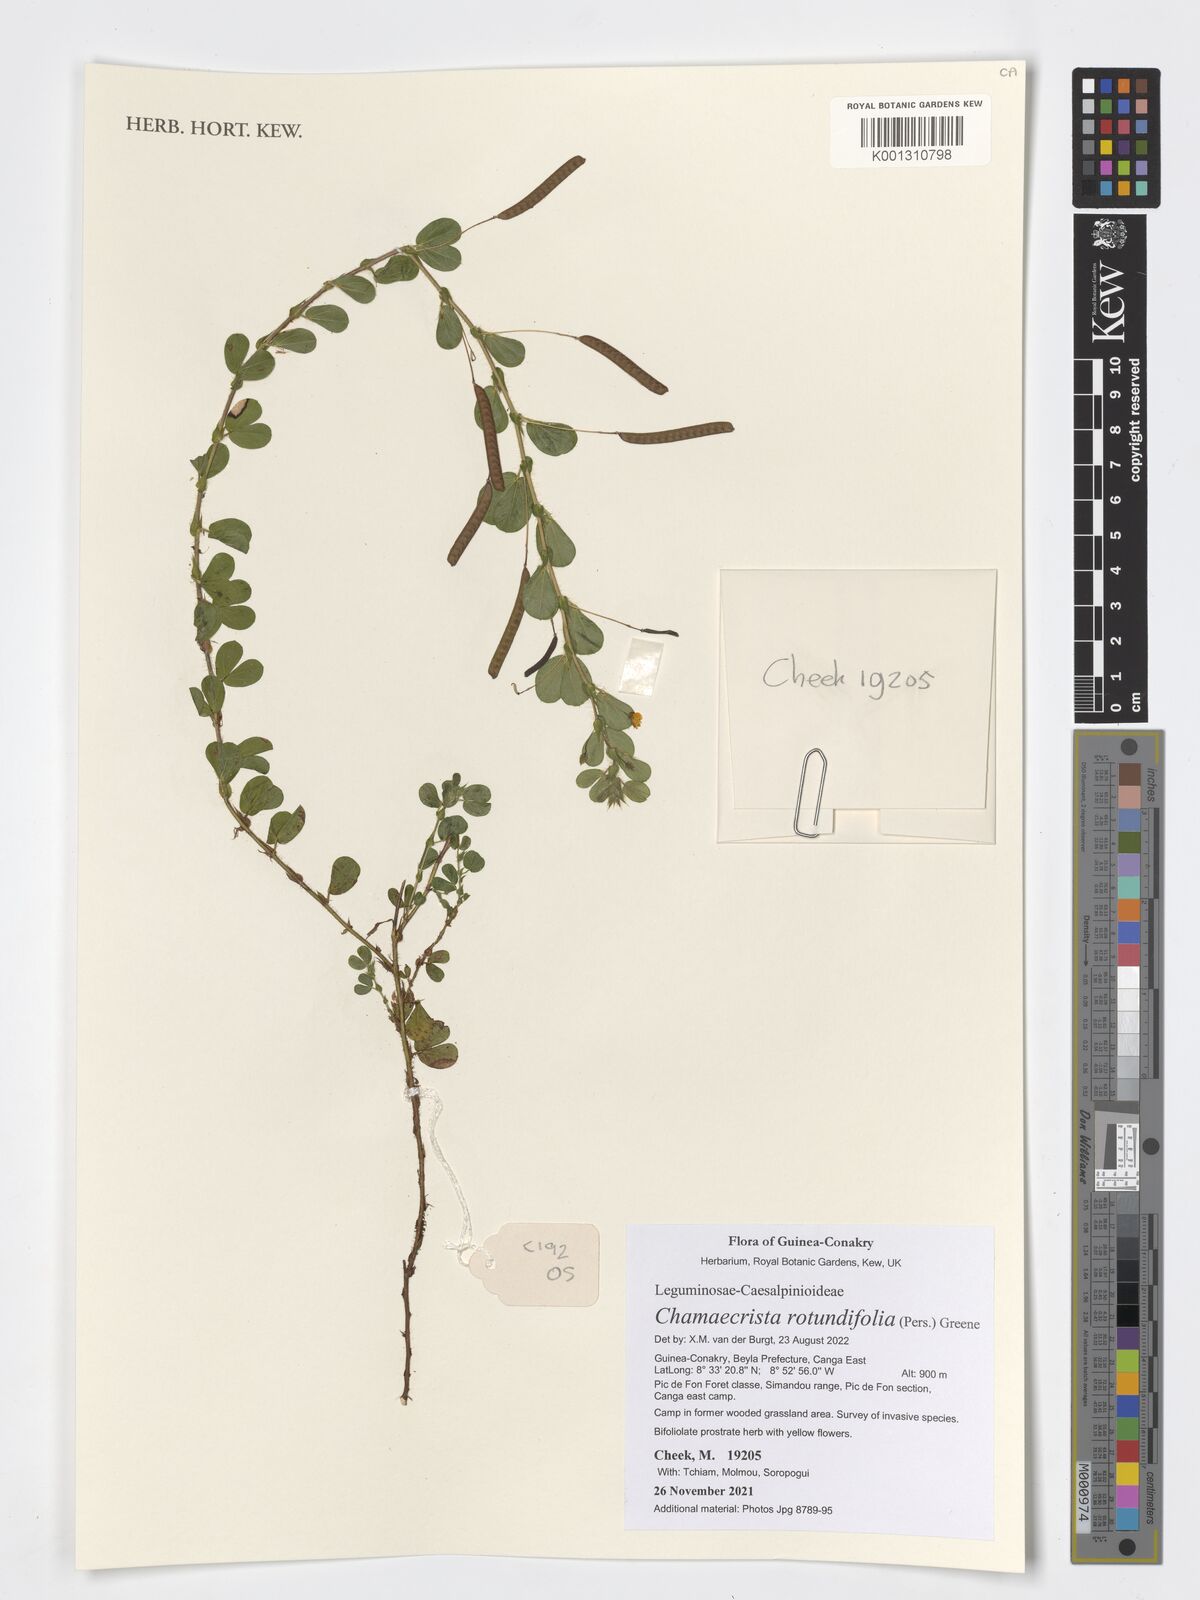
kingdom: Plantae
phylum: Tracheophyta
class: Magnoliopsida
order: Fabales
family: Fabaceae
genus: Chamaecrista
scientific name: Chamaecrista rotundifolia
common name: Round-leaf cassia
